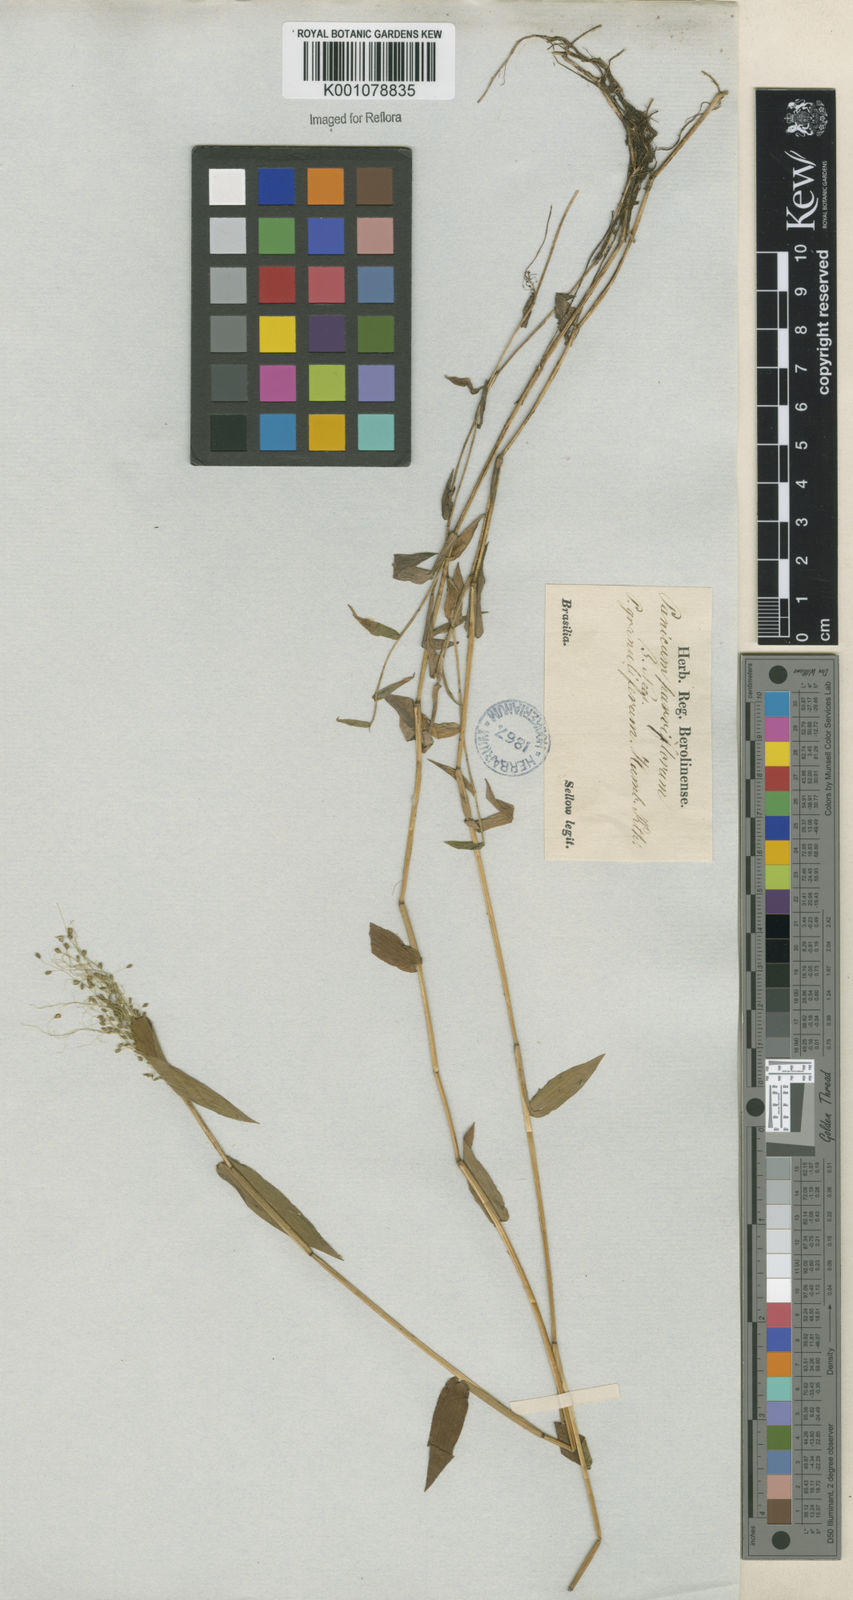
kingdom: Plantae
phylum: Tracheophyta
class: Liliopsida
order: Poales
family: Poaceae
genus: Trichanthecium
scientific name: Trichanthecium schwackeanum
